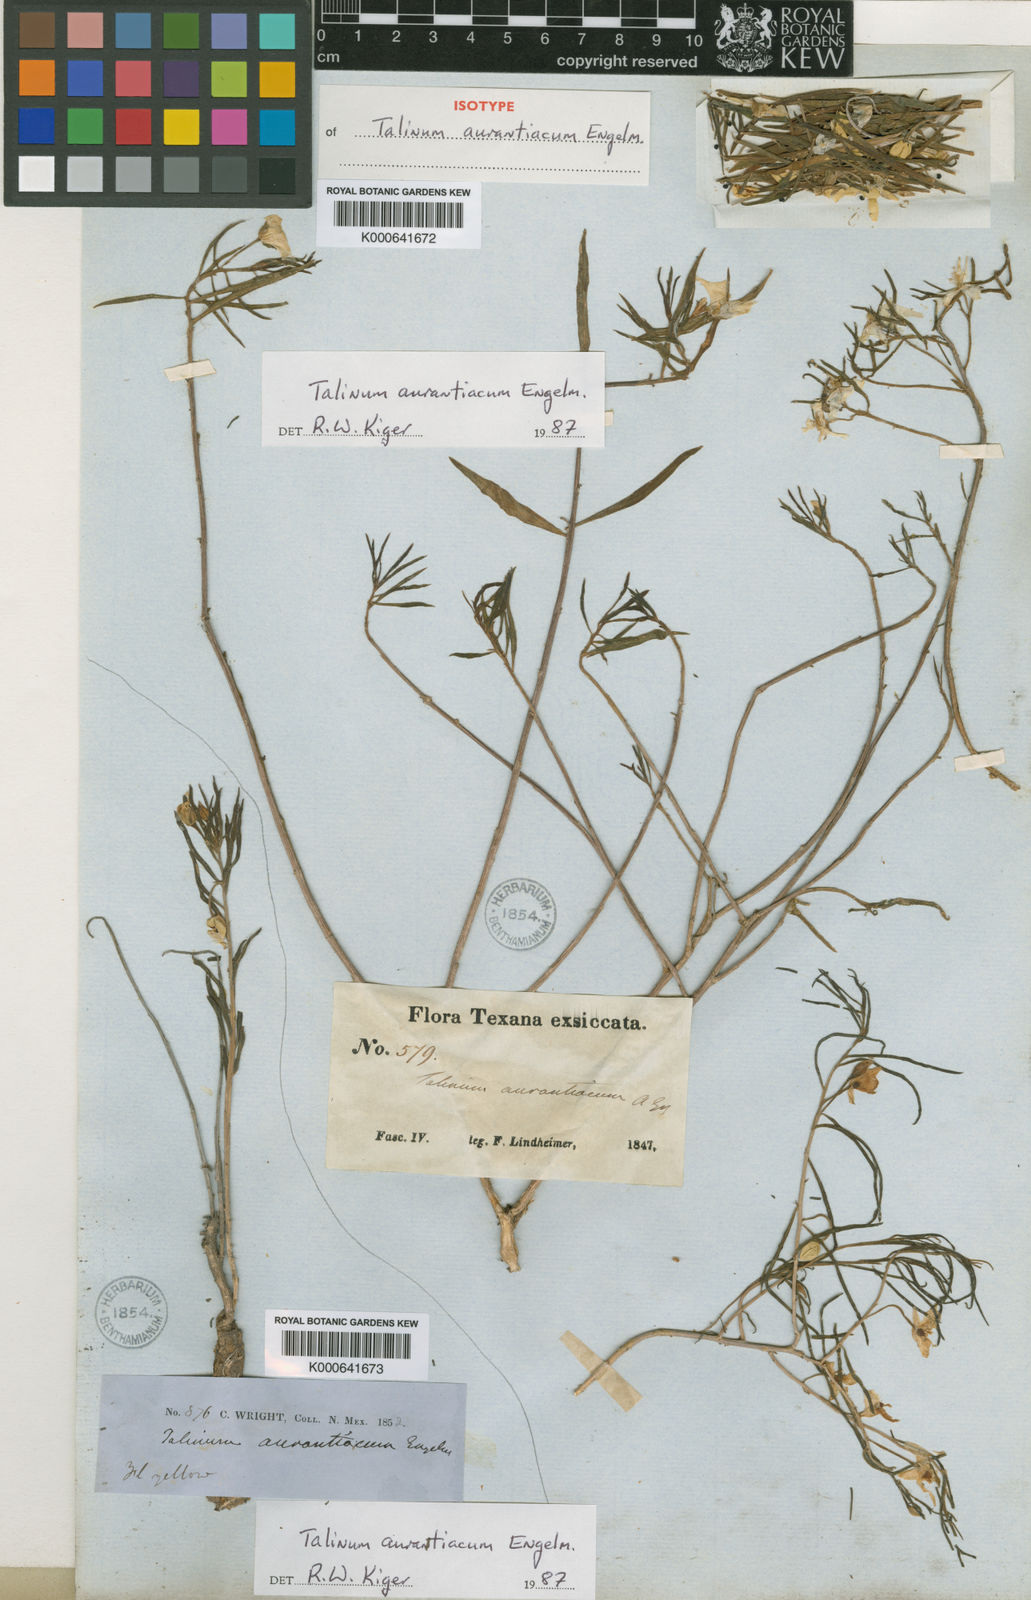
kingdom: Plantae
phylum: Tracheophyta
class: Magnoliopsida
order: Caryophyllales
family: Montiaceae
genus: Phemeranthus
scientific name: Phemeranthus aurantiacus
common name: Orange fameflower
